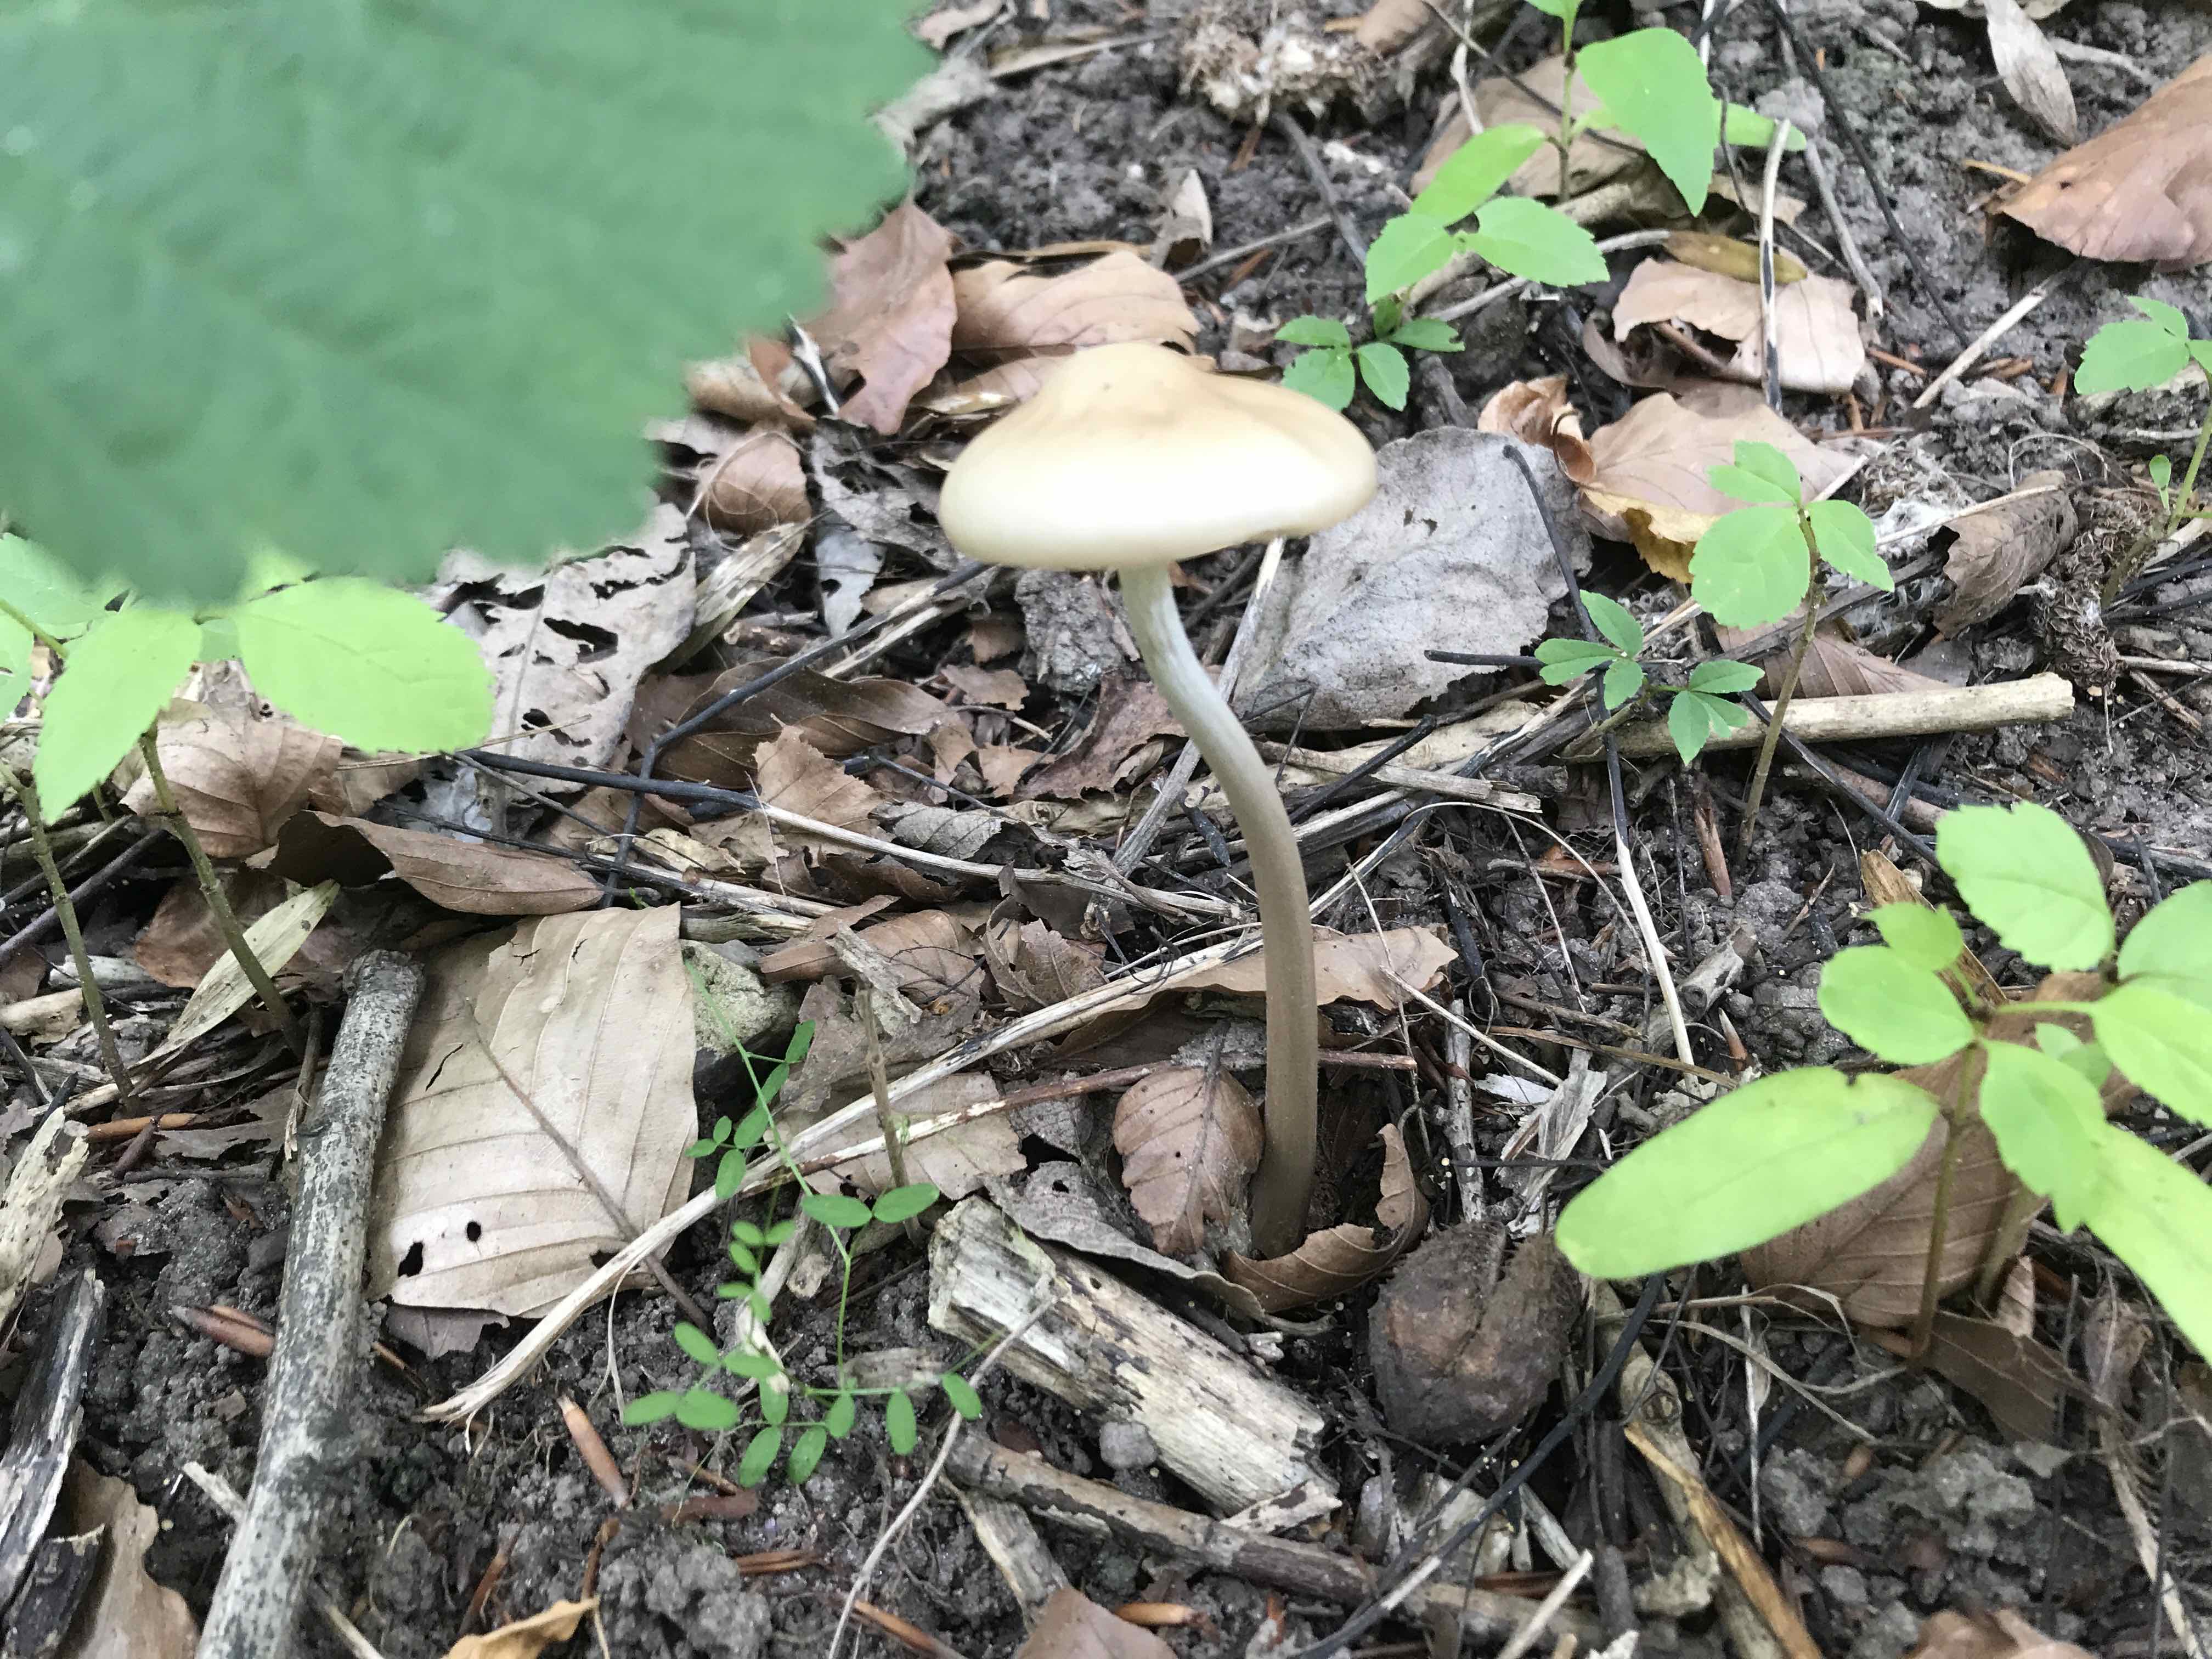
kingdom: Fungi
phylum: Basidiomycota
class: Agaricomycetes
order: Agaricales
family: Physalacriaceae
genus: Hymenopellis
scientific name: Hymenopellis radicata
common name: almindelig pælerodshat
